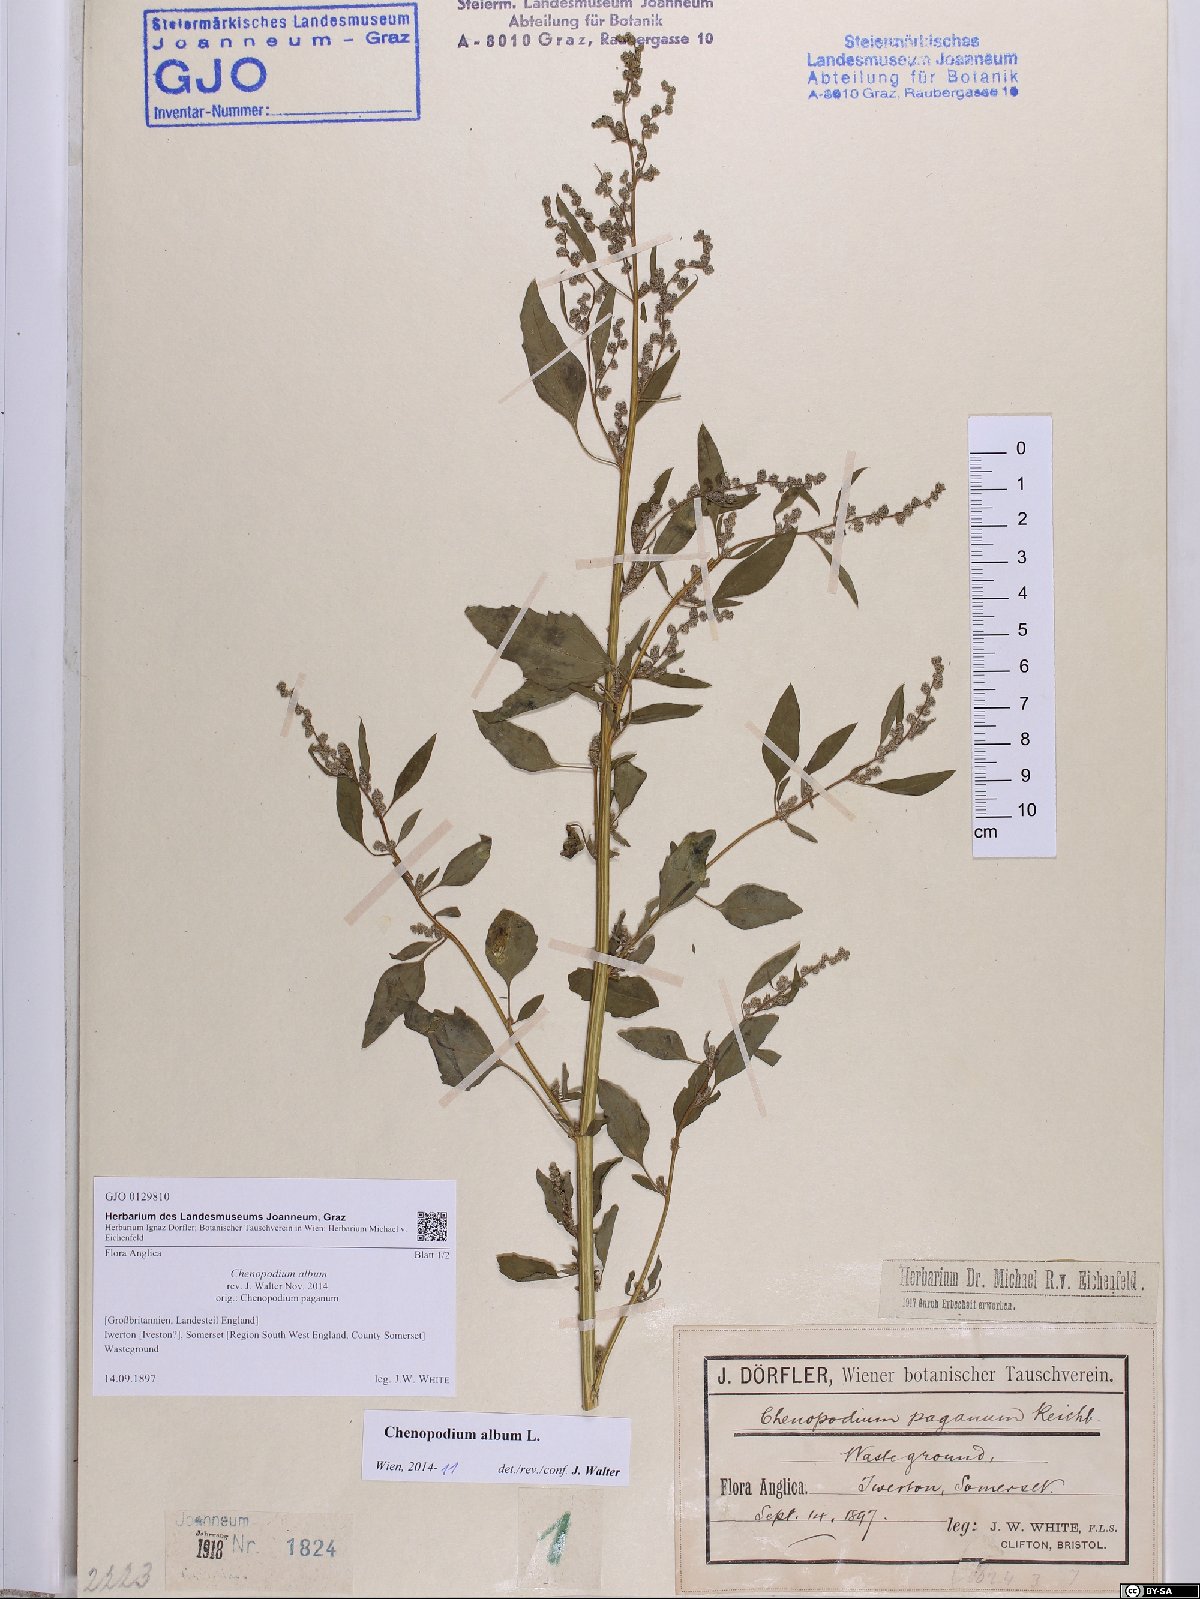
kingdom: Plantae
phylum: Tracheophyta
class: Magnoliopsida
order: Caryophyllales
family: Amaranthaceae
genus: Chenopodium
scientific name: Chenopodium album
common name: Fat-hen
